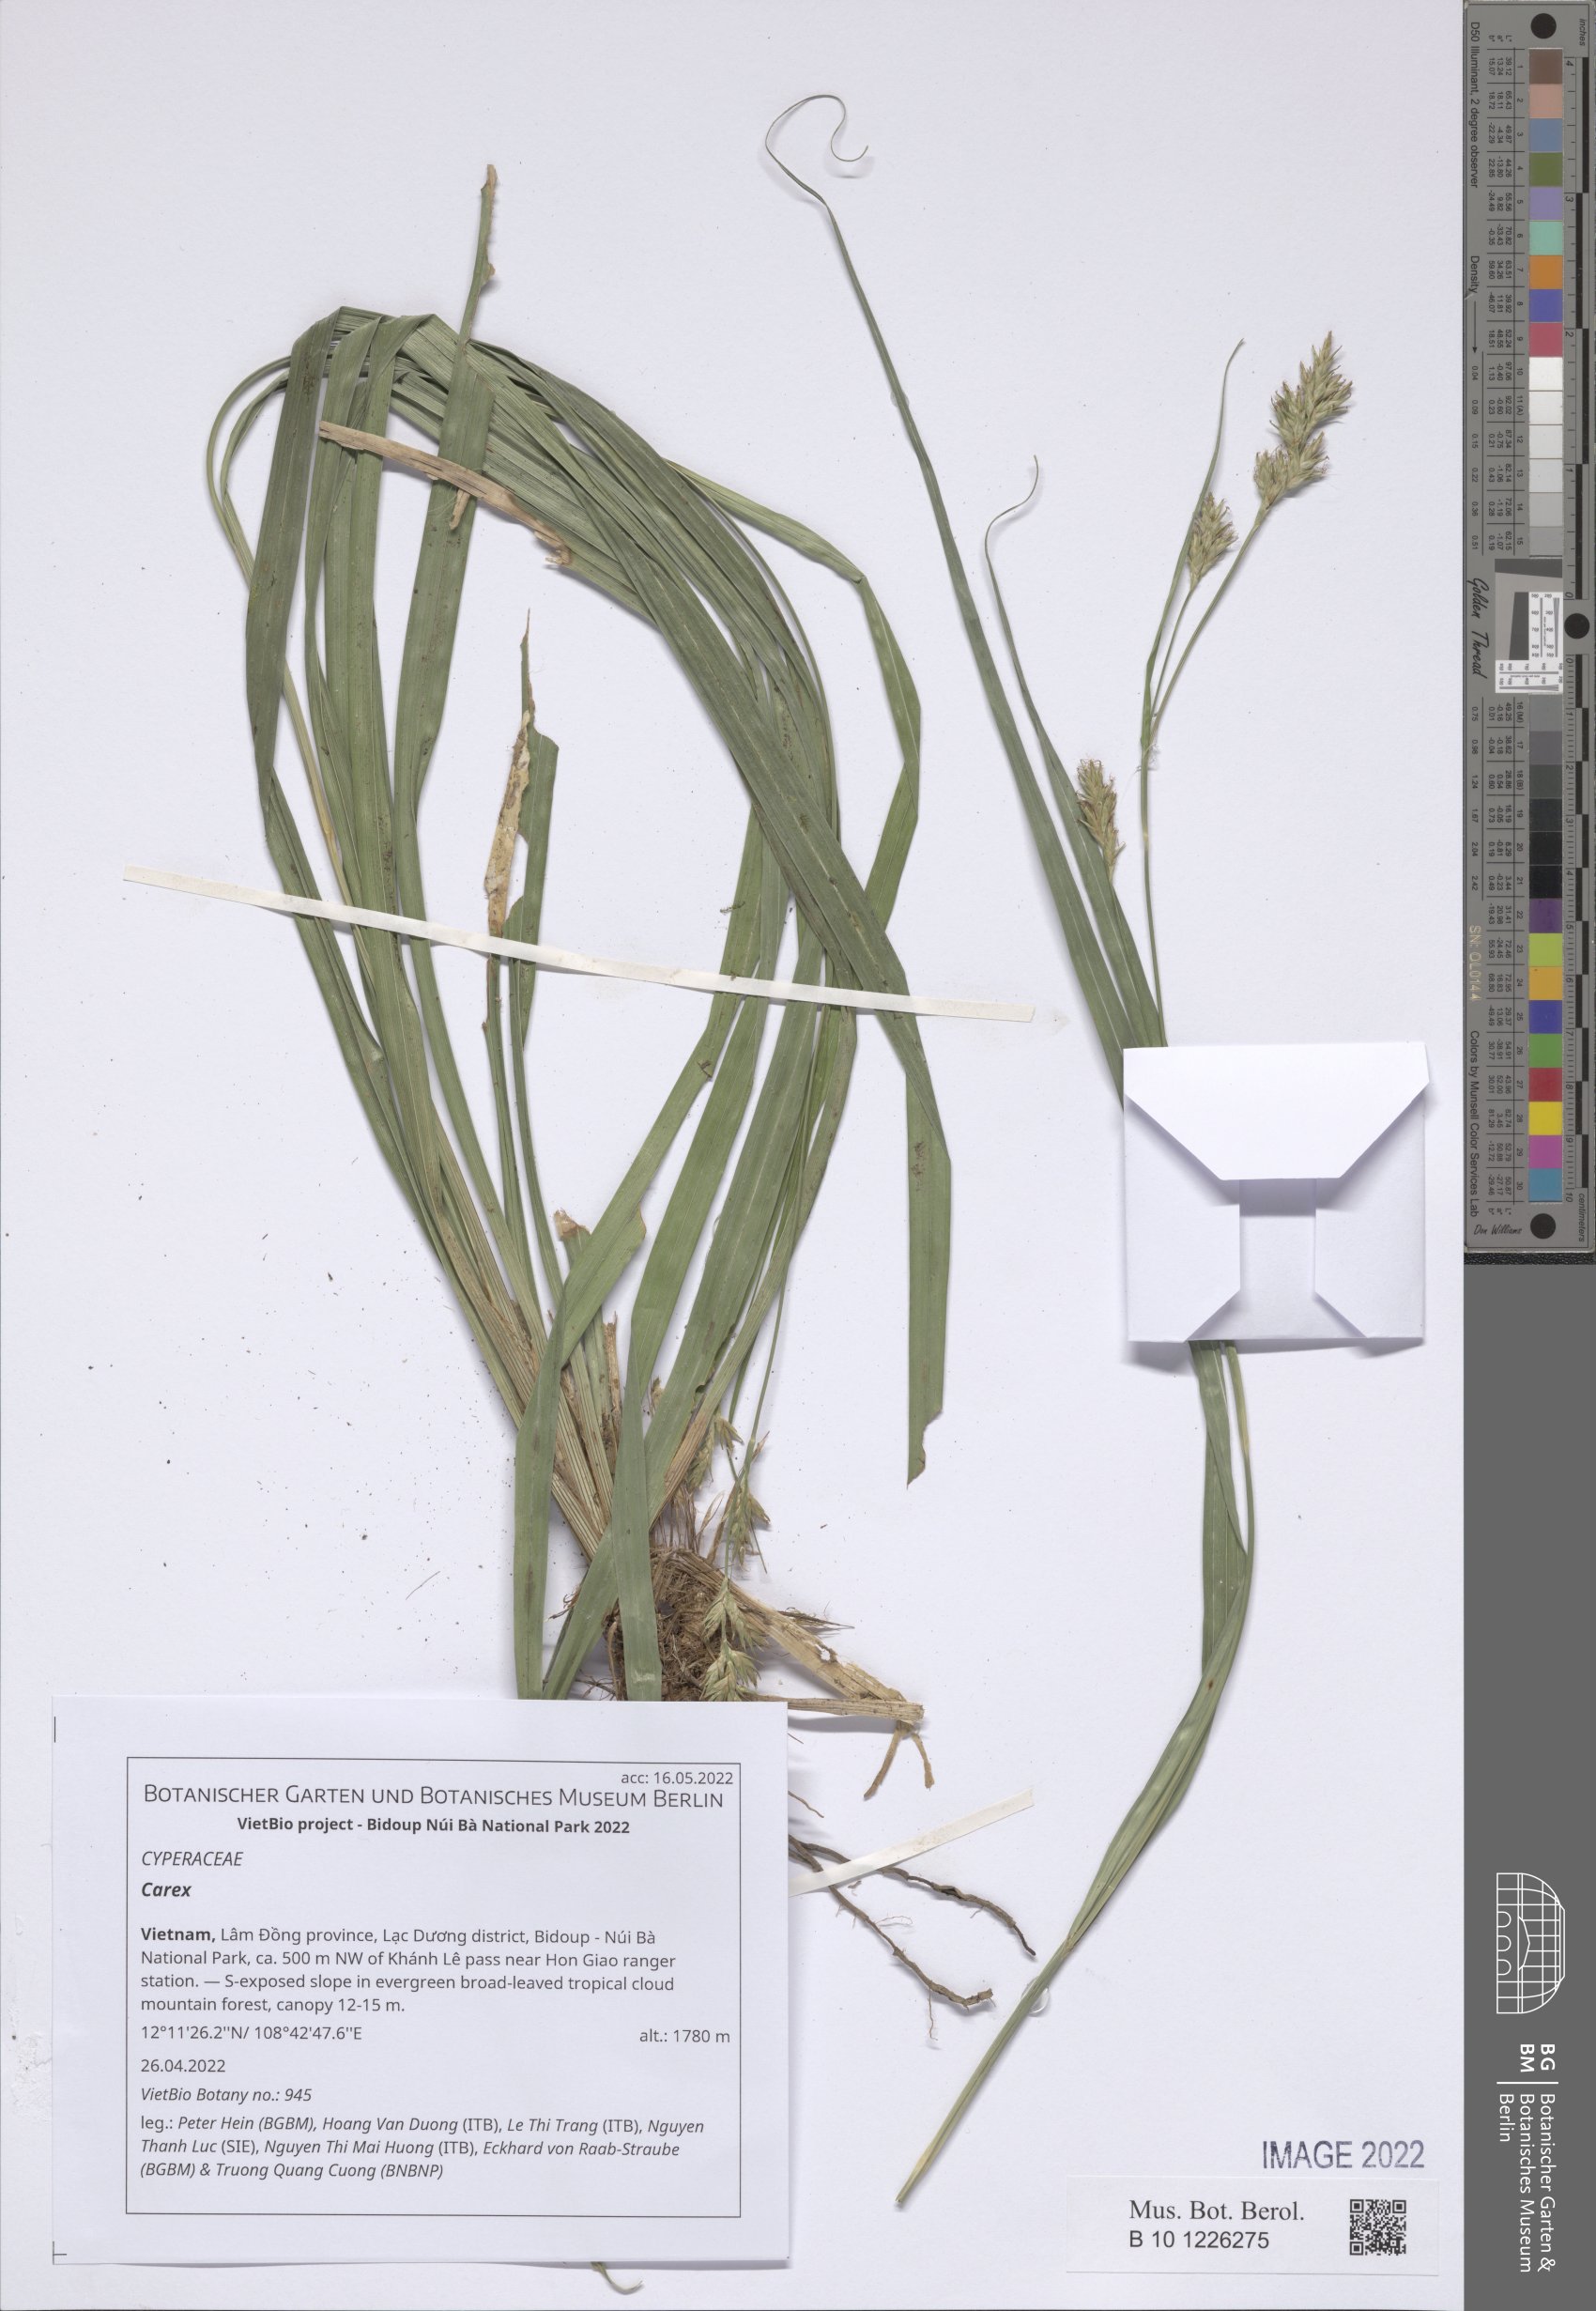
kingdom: Plantae
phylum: Tracheophyta
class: Liliopsida
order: Poales
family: Cyperaceae
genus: Carex
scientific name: Carex
